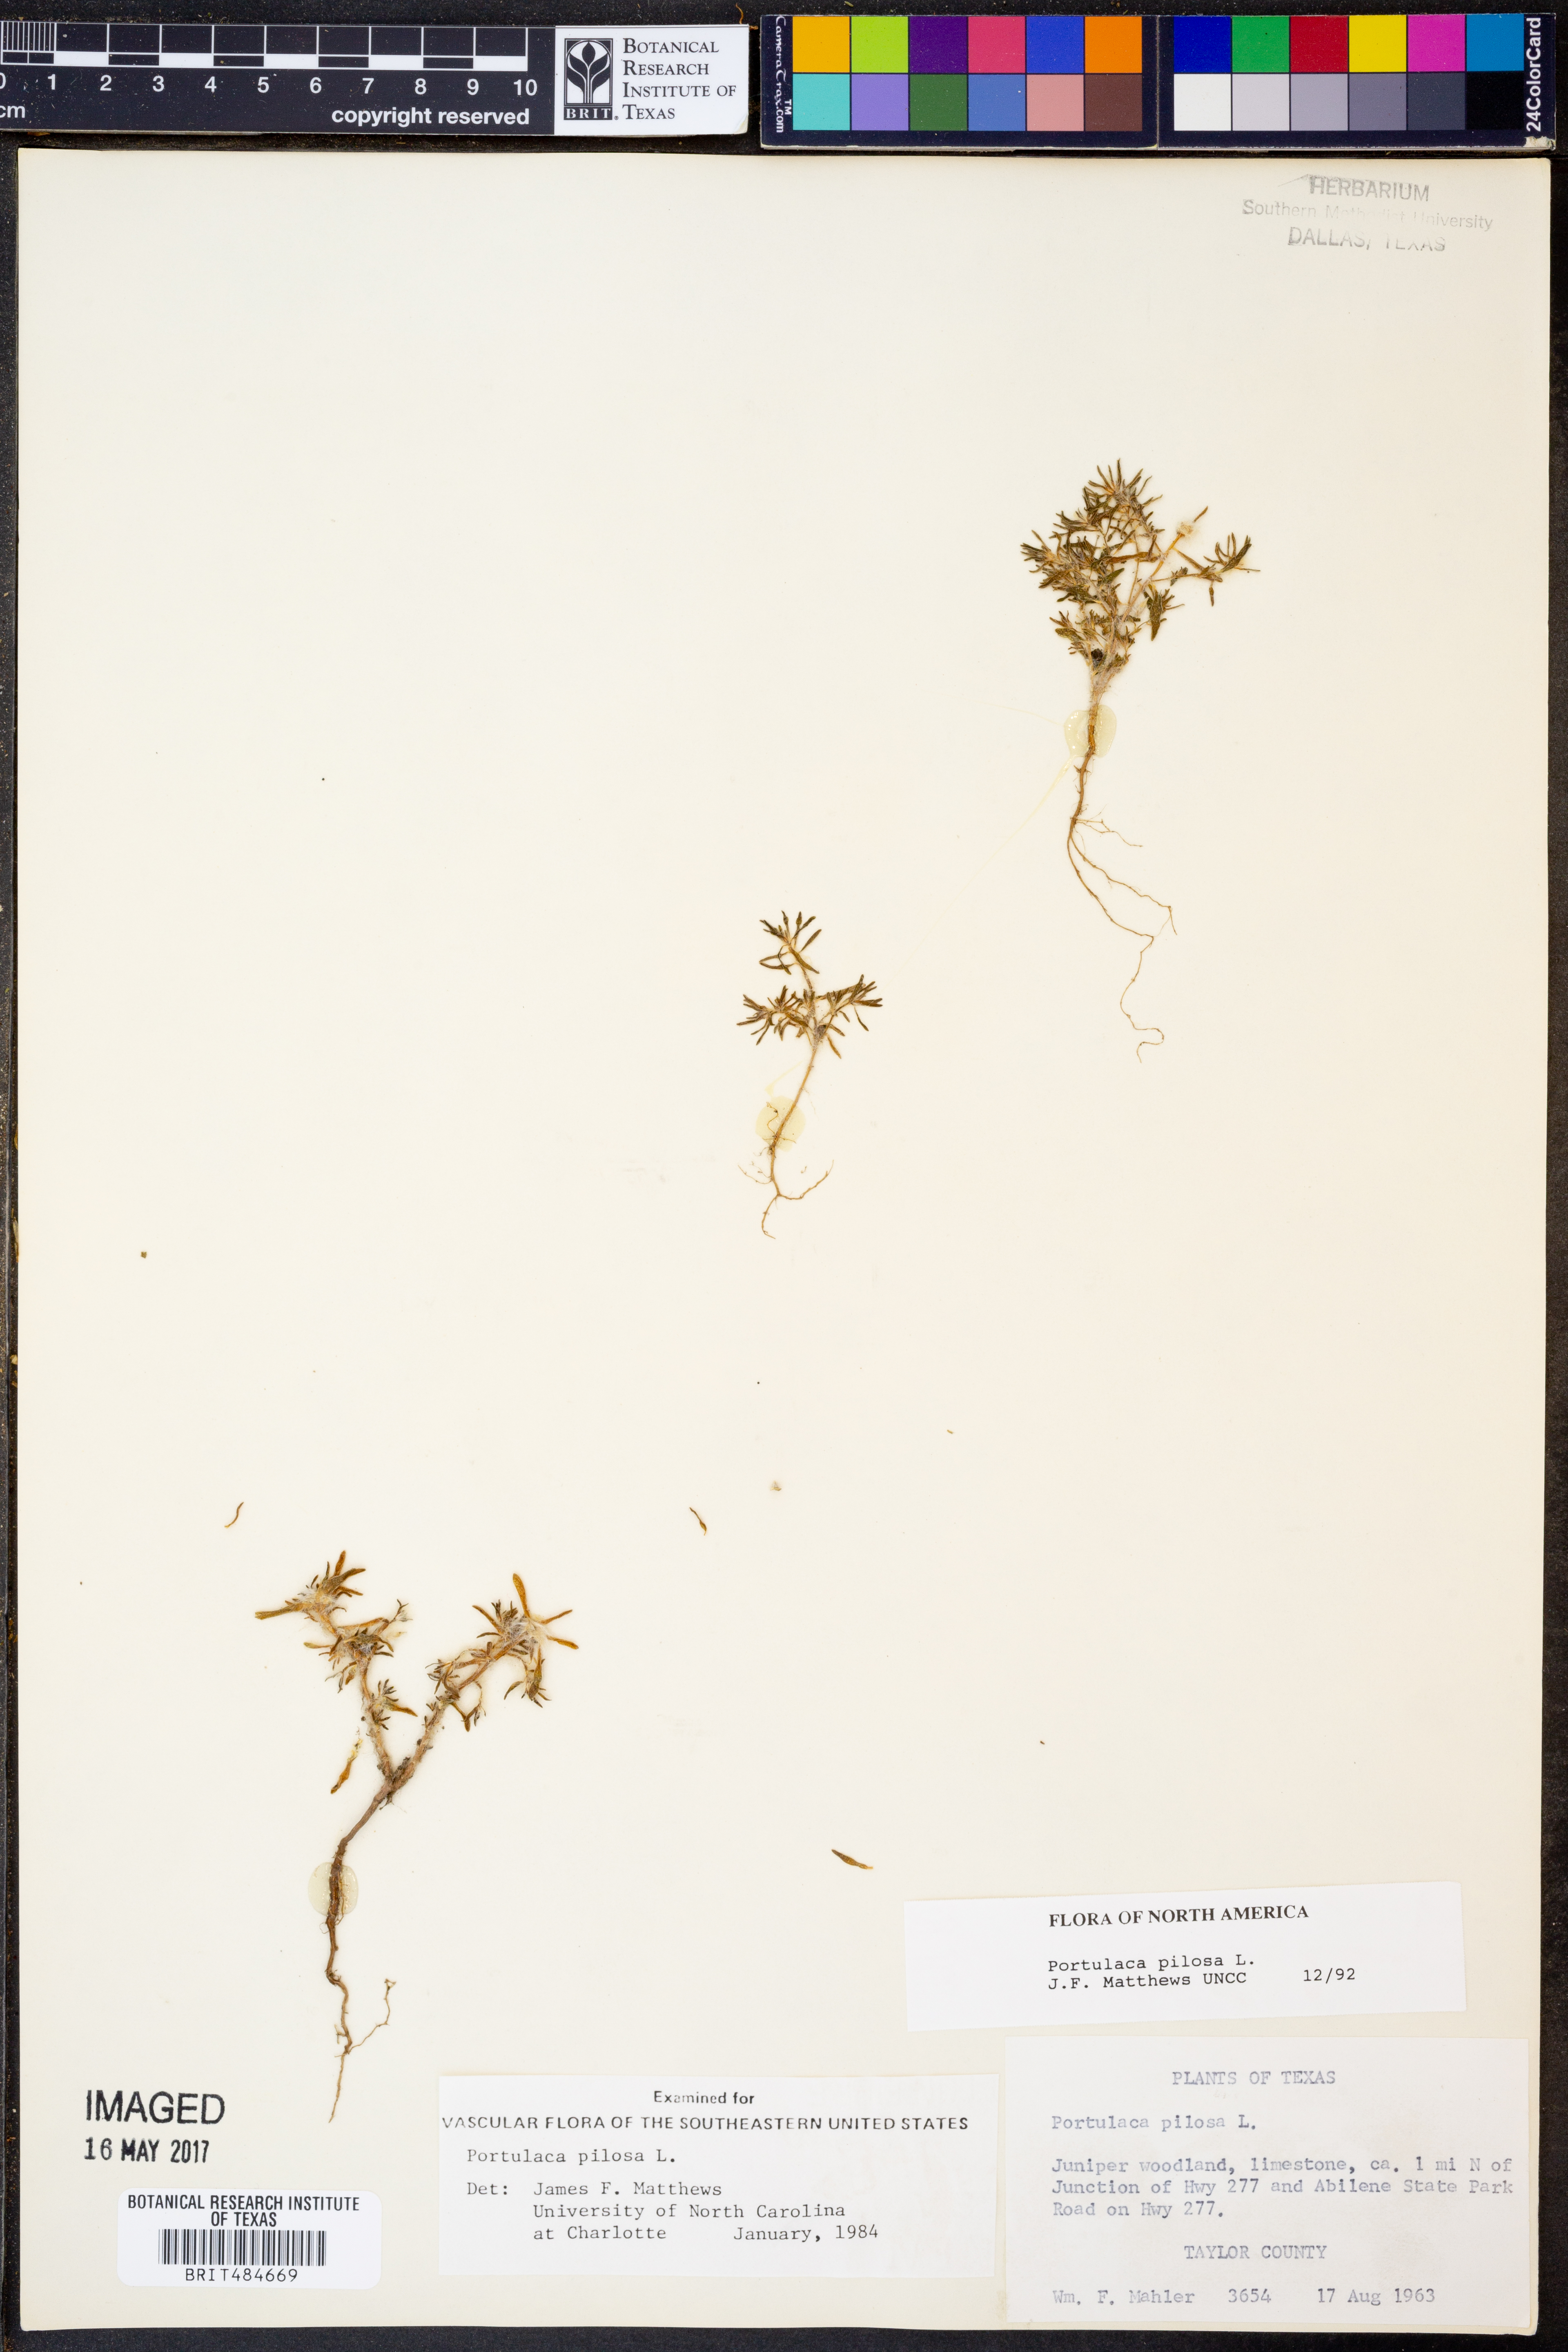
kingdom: Plantae
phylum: Tracheophyta
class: Magnoliopsida
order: Caryophyllales
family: Portulacaceae
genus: Portulaca
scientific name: Portulaca pilosa
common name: Kiss me quick
